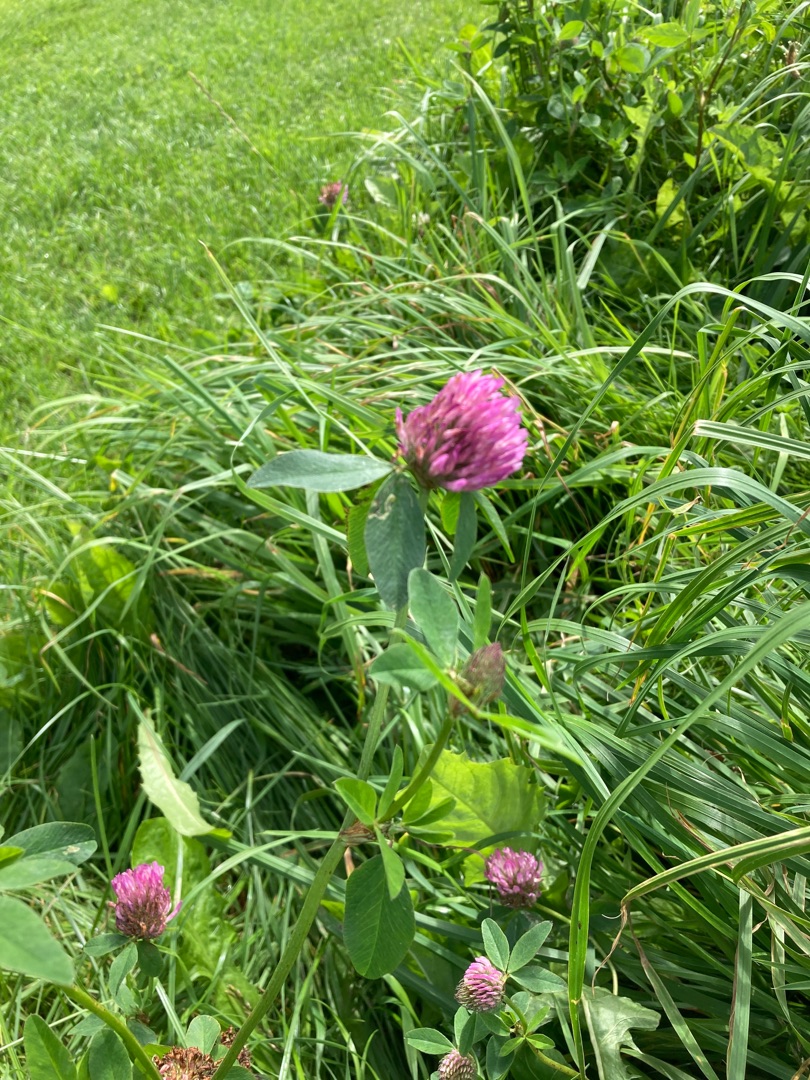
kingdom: Plantae
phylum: Tracheophyta
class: Magnoliopsida
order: Fabales
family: Fabaceae
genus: Trifolium
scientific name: Trifolium pratense
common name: Rød-kløver
